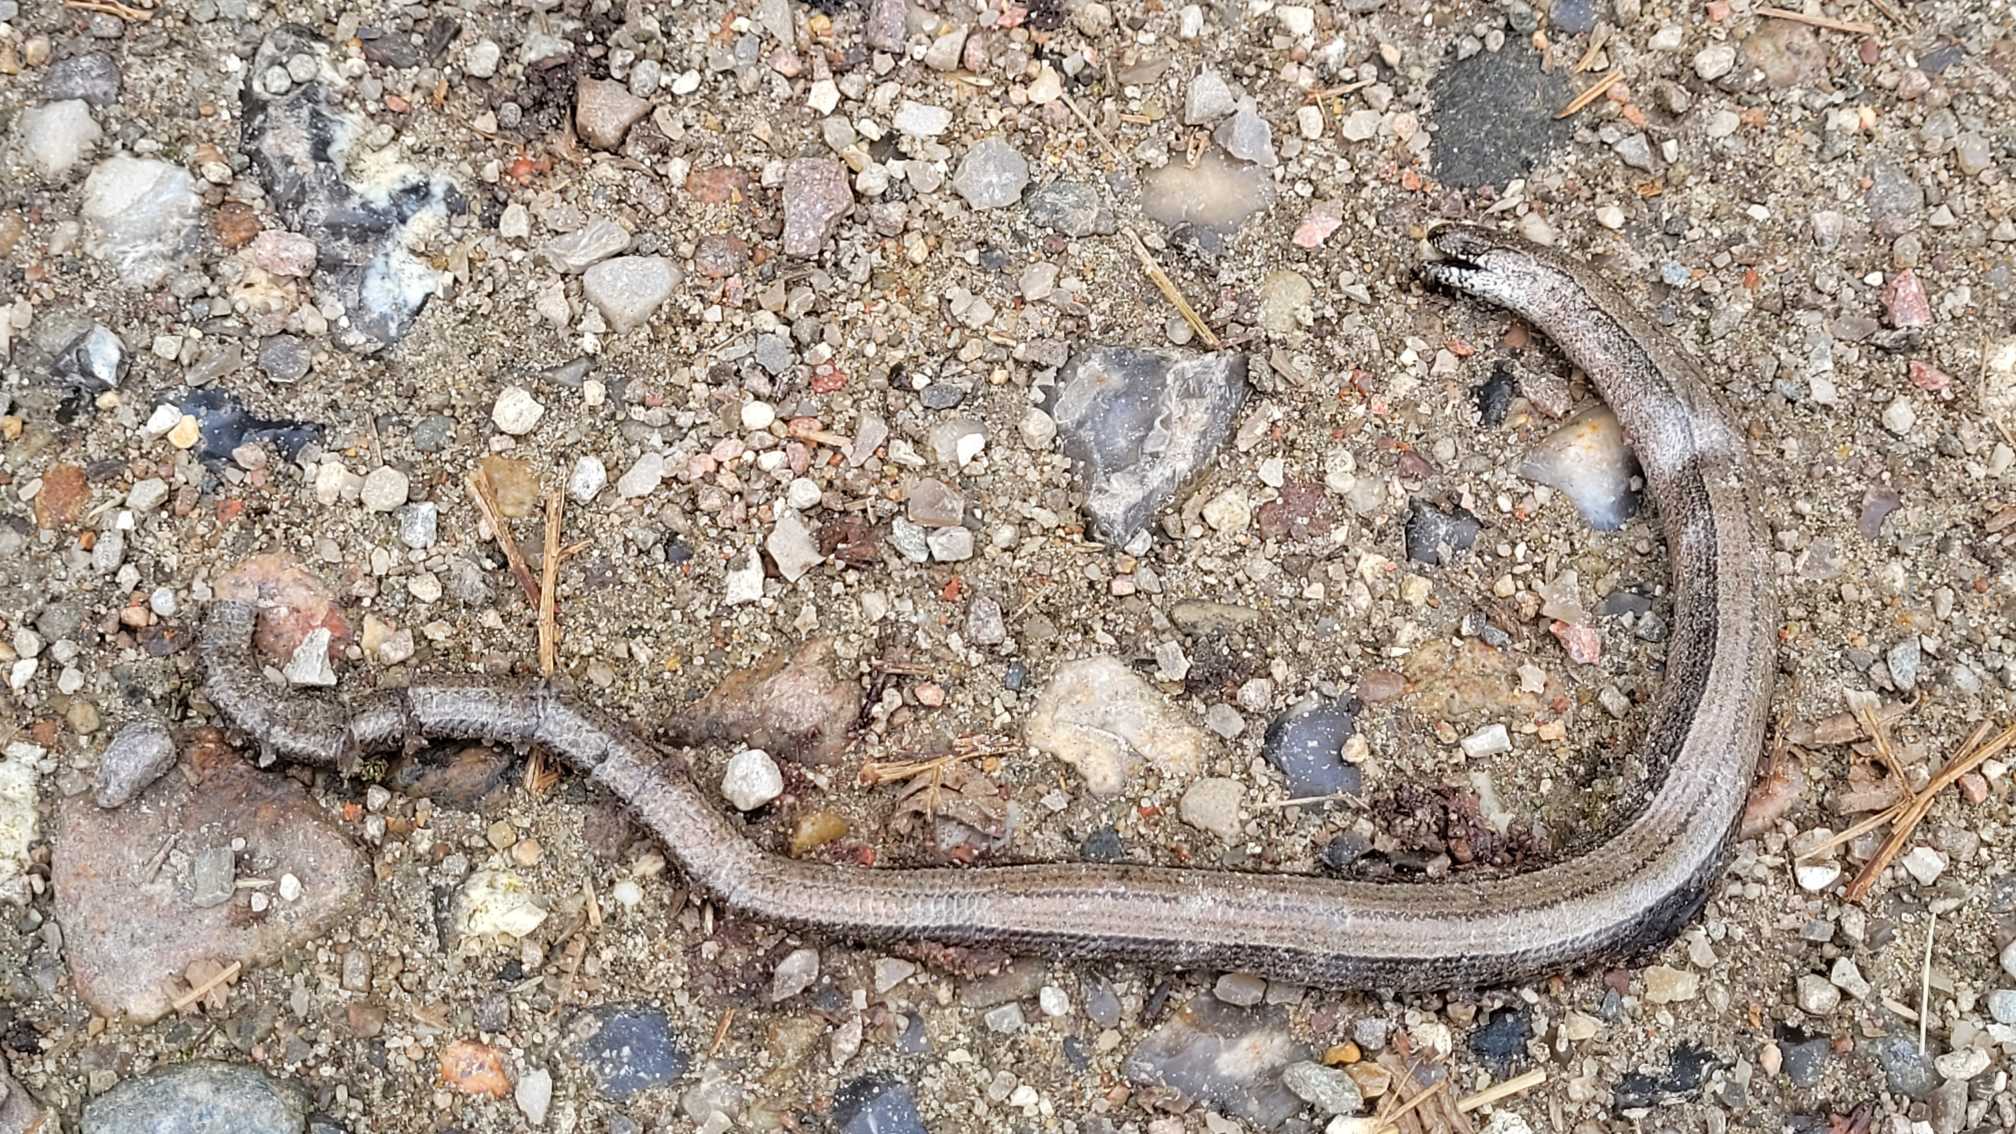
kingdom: Animalia
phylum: Chordata
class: Squamata
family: Anguidae
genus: Anguis
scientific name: Anguis fragilis
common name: Stålorm
